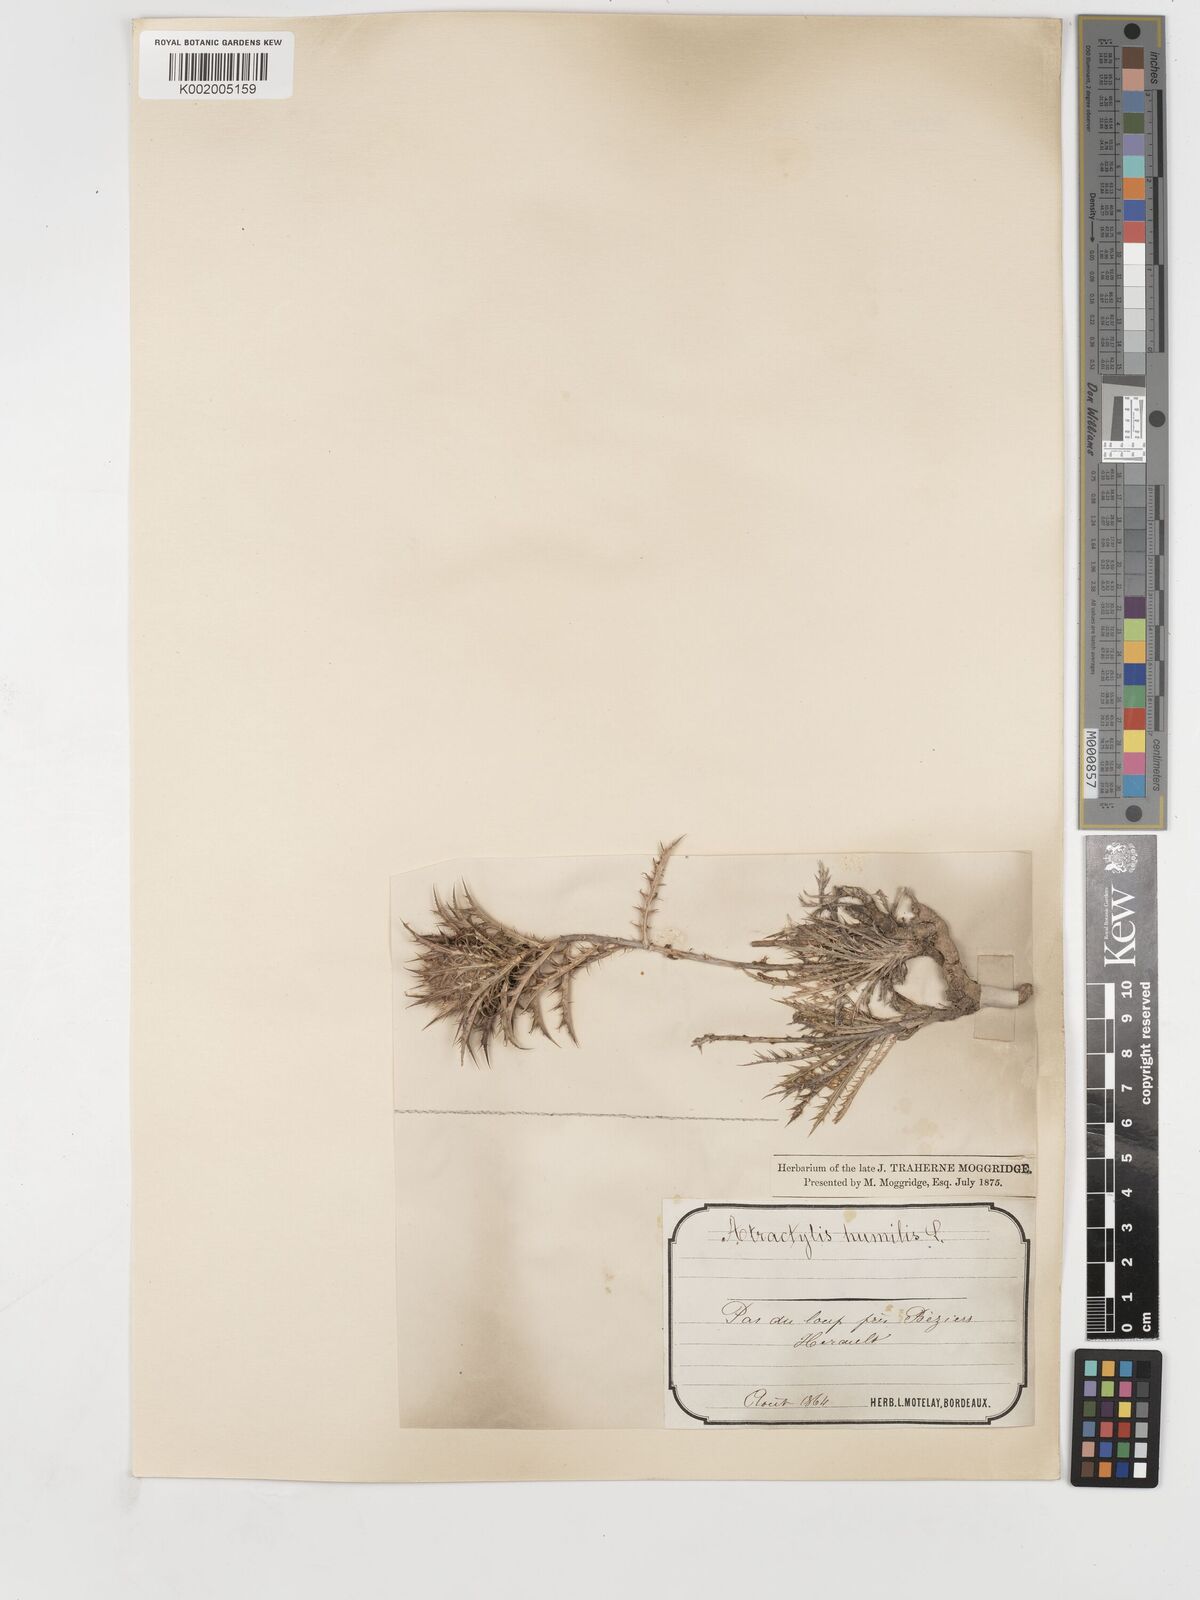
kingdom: Plantae
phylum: Tracheophyta
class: Magnoliopsida
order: Asterales
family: Asteraceae
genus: Atractylis
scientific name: Atractylis humilis
